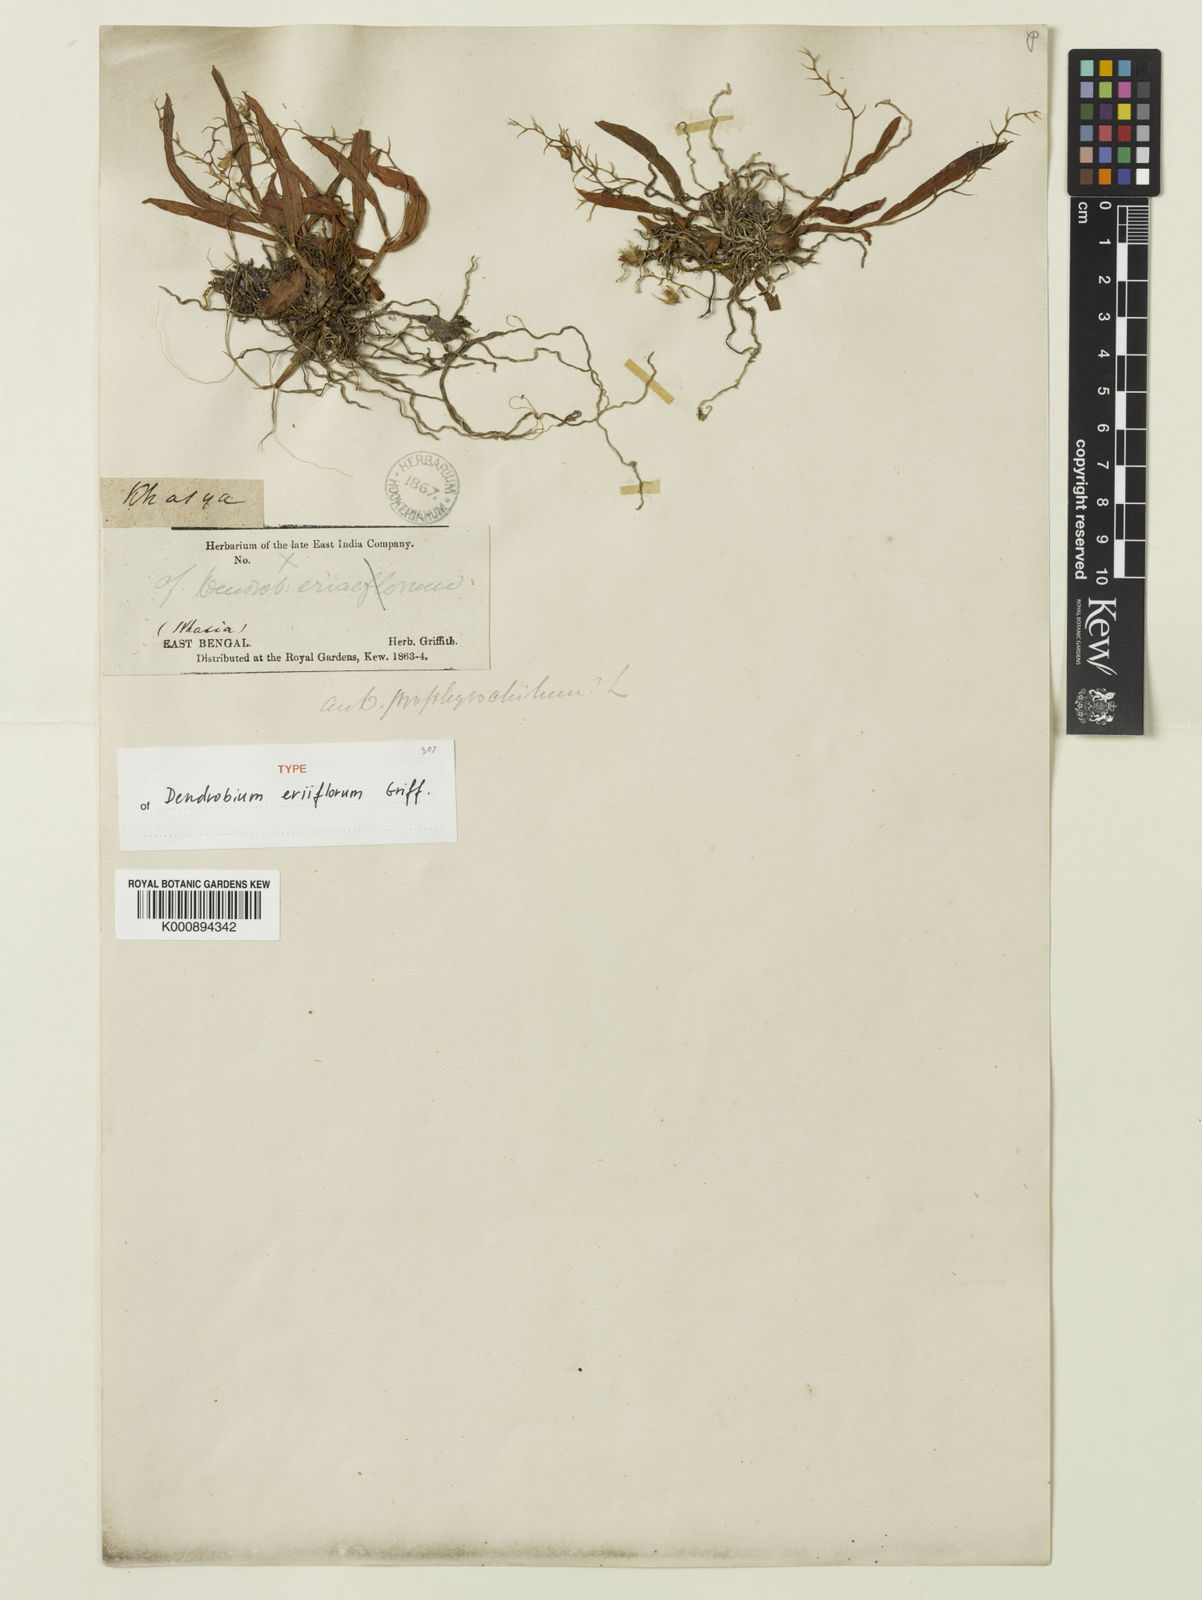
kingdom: Plantae
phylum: Tracheophyta
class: Liliopsida
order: Asparagales
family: Orchidaceae
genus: Dendrobium
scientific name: Dendrobium eriiflorum
